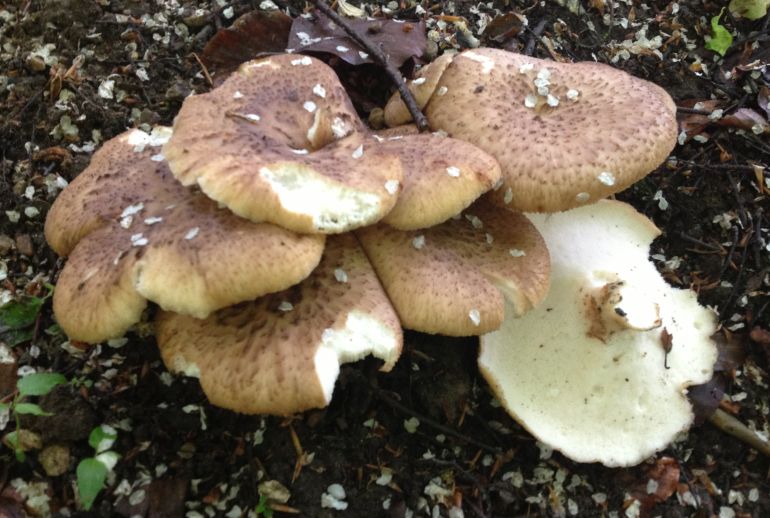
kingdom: Fungi
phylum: Basidiomycota
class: Agaricomycetes
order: Polyporales
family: Polyporaceae
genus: Cerioporus
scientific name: Cerioporus squamosus
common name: skællet stilkporesvamp
